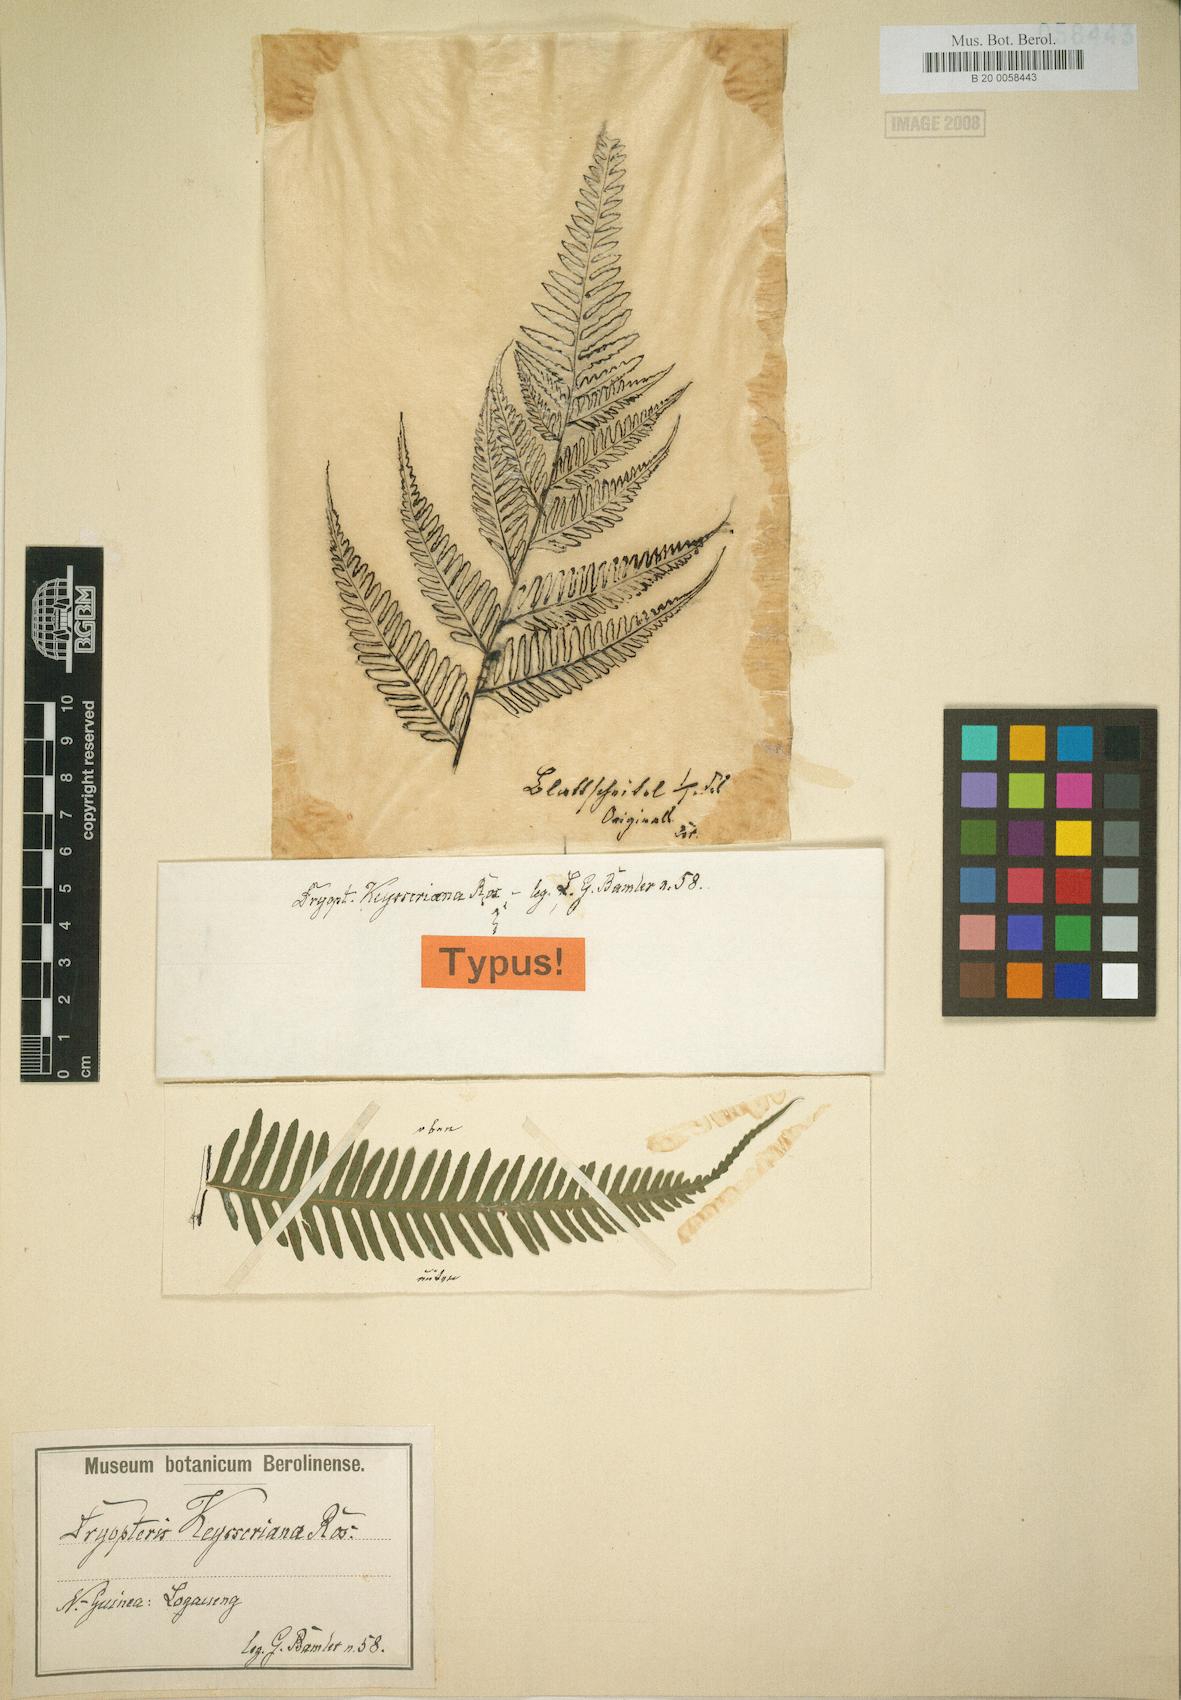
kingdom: Plantae
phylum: Tracheophyta
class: Polypodiopsida
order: Polypodiales
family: Thelypteridaceae
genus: Plesioneuron
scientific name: Plesioneuron keysserianum
